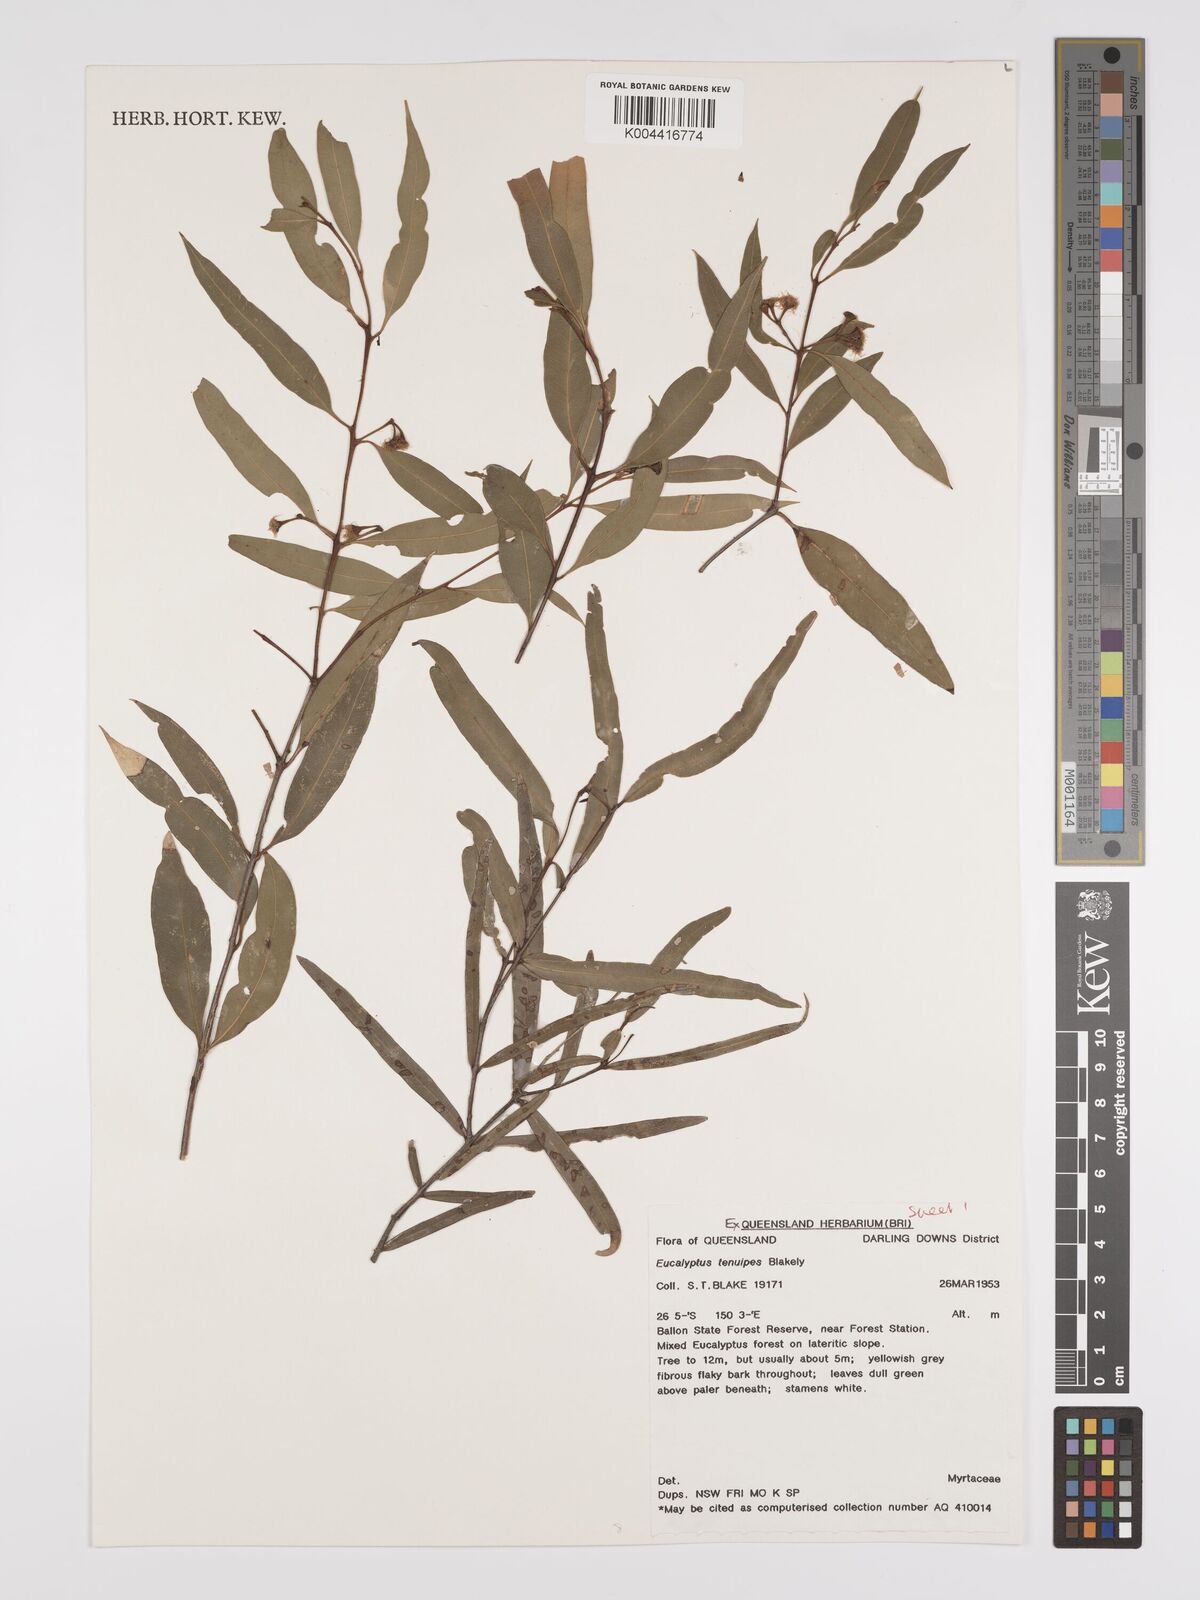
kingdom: Plantae
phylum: Tracheophyta
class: Magnoliopsida
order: Myrtales
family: Myrtaceae
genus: Eucalyptus
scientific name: Eucalyptus tenuipes
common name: Narrow-leaved white mahogany
